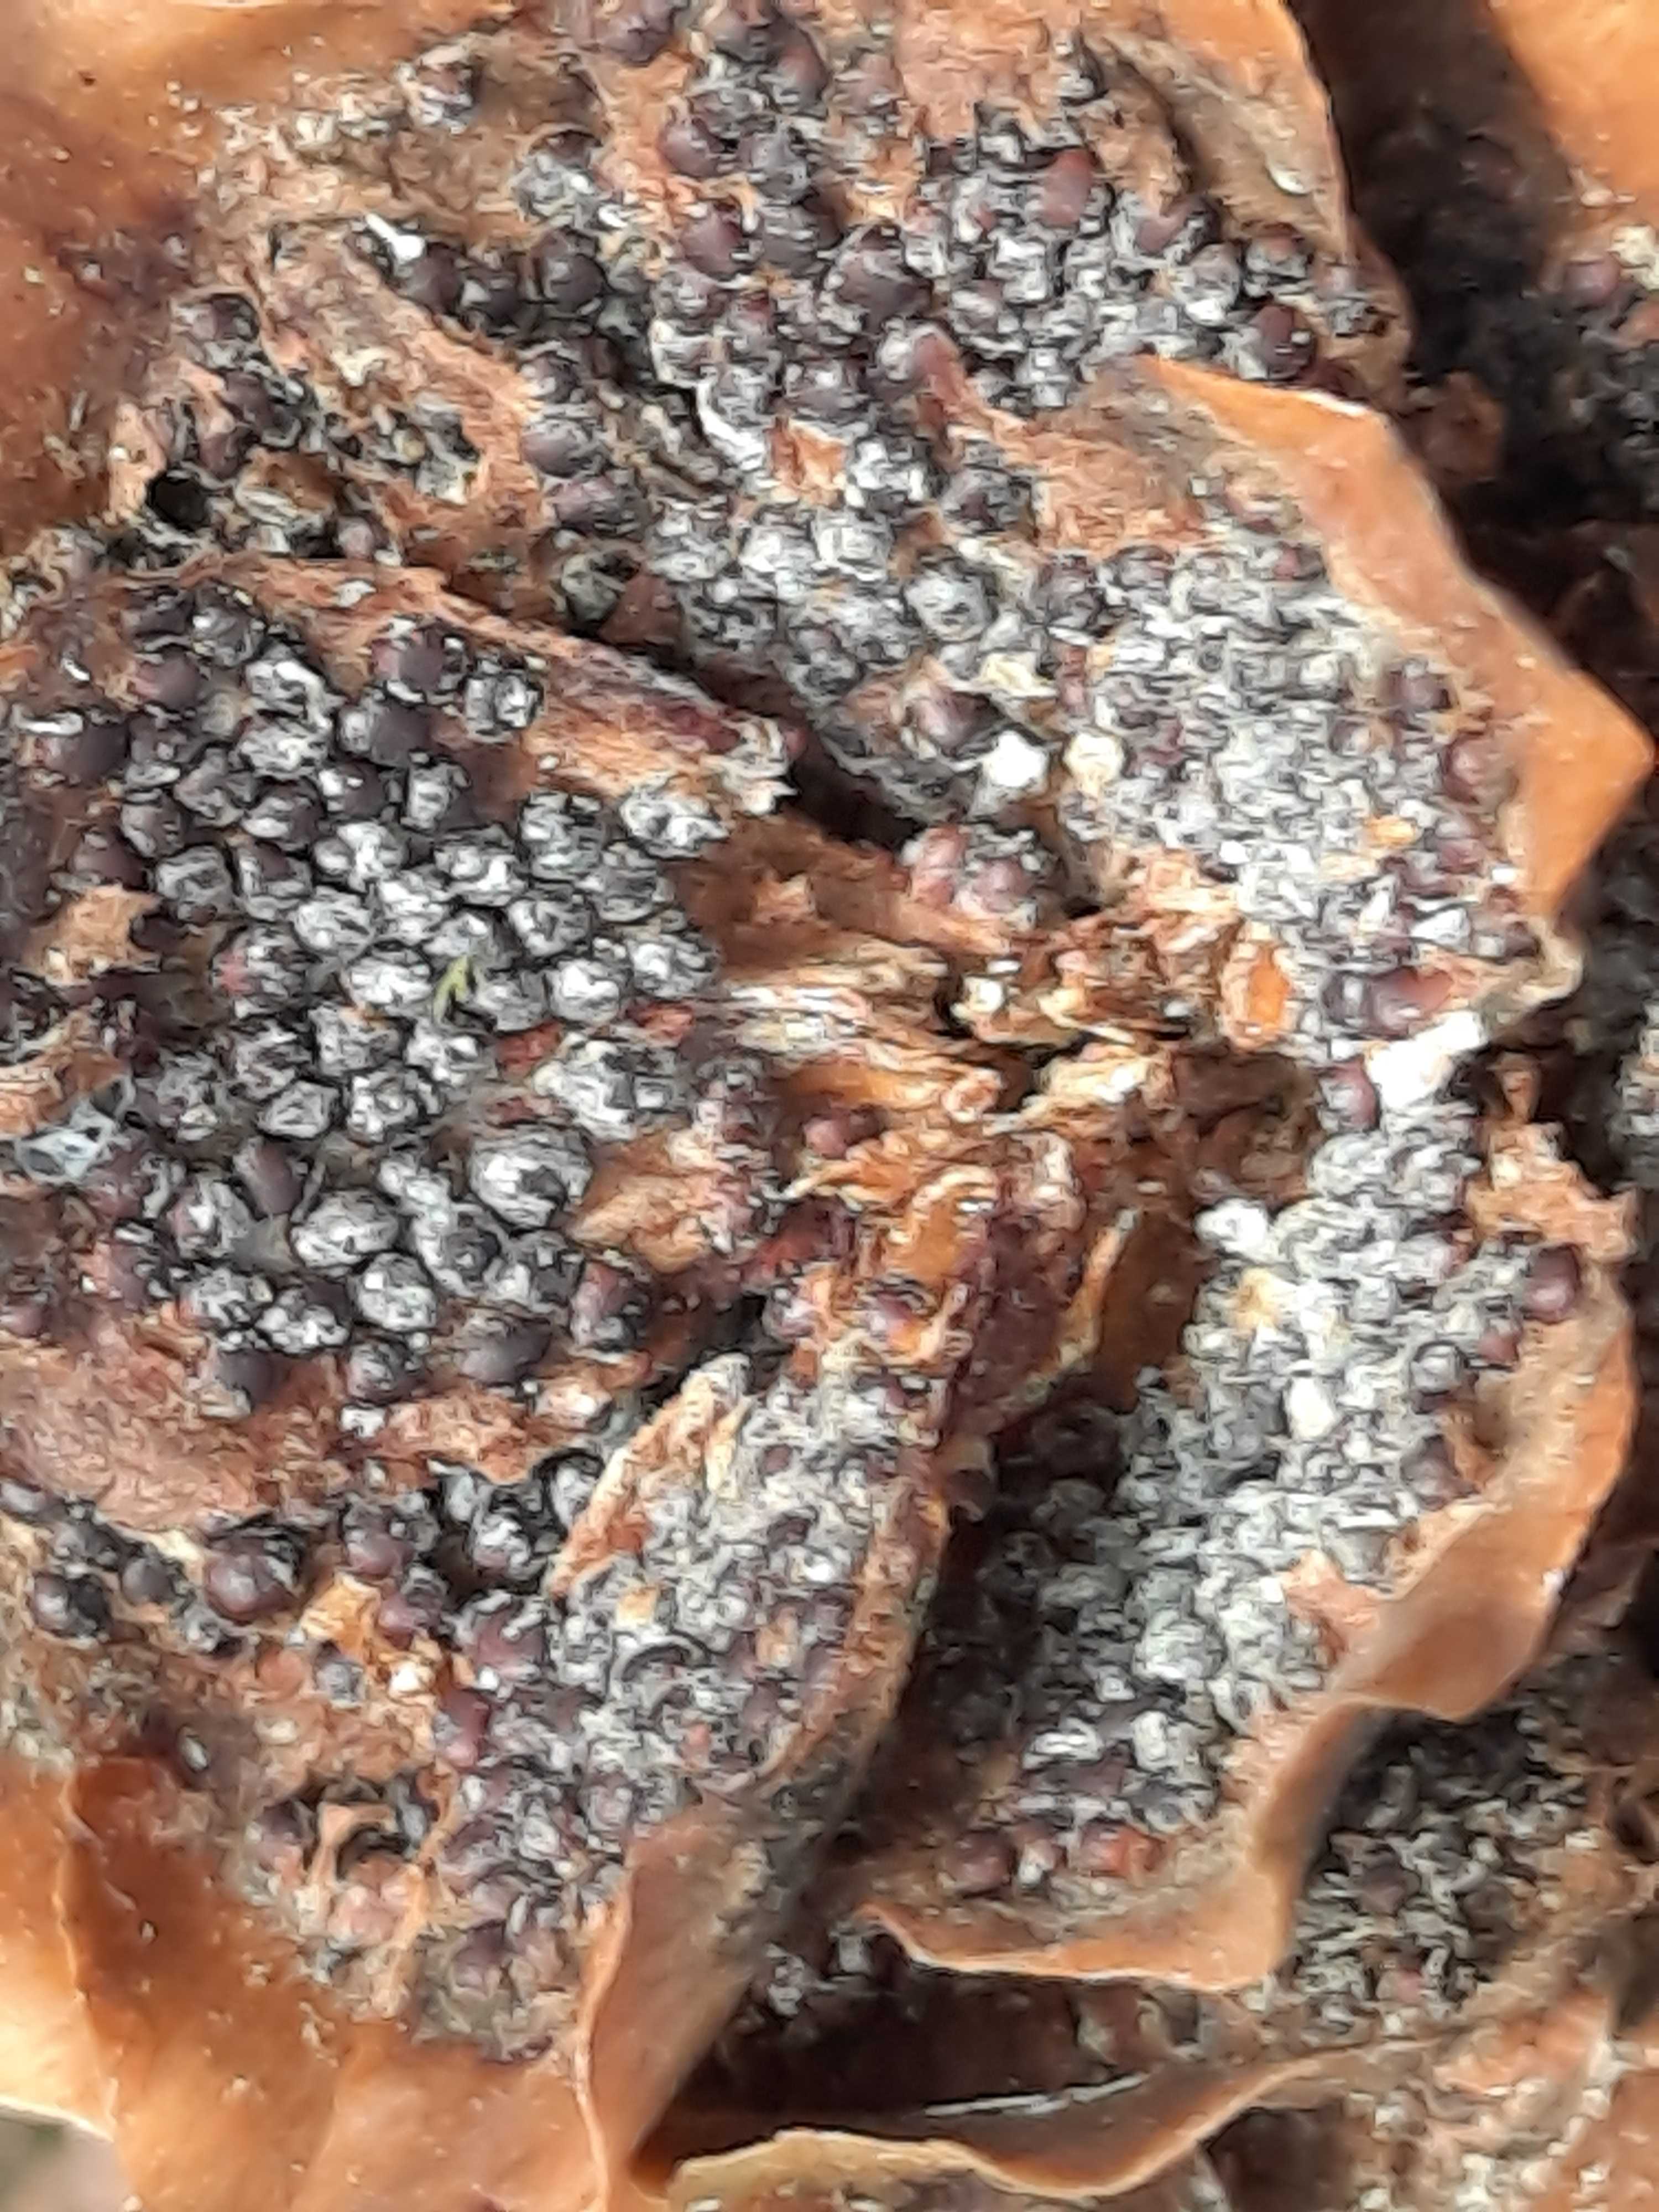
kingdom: Fungi
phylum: Basidiomycota
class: Pucciniomycetes
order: Pucciniales
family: Pucciniastraceae
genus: Thekopsora
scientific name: Thekopsora areolata
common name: grankogle-nålerust
